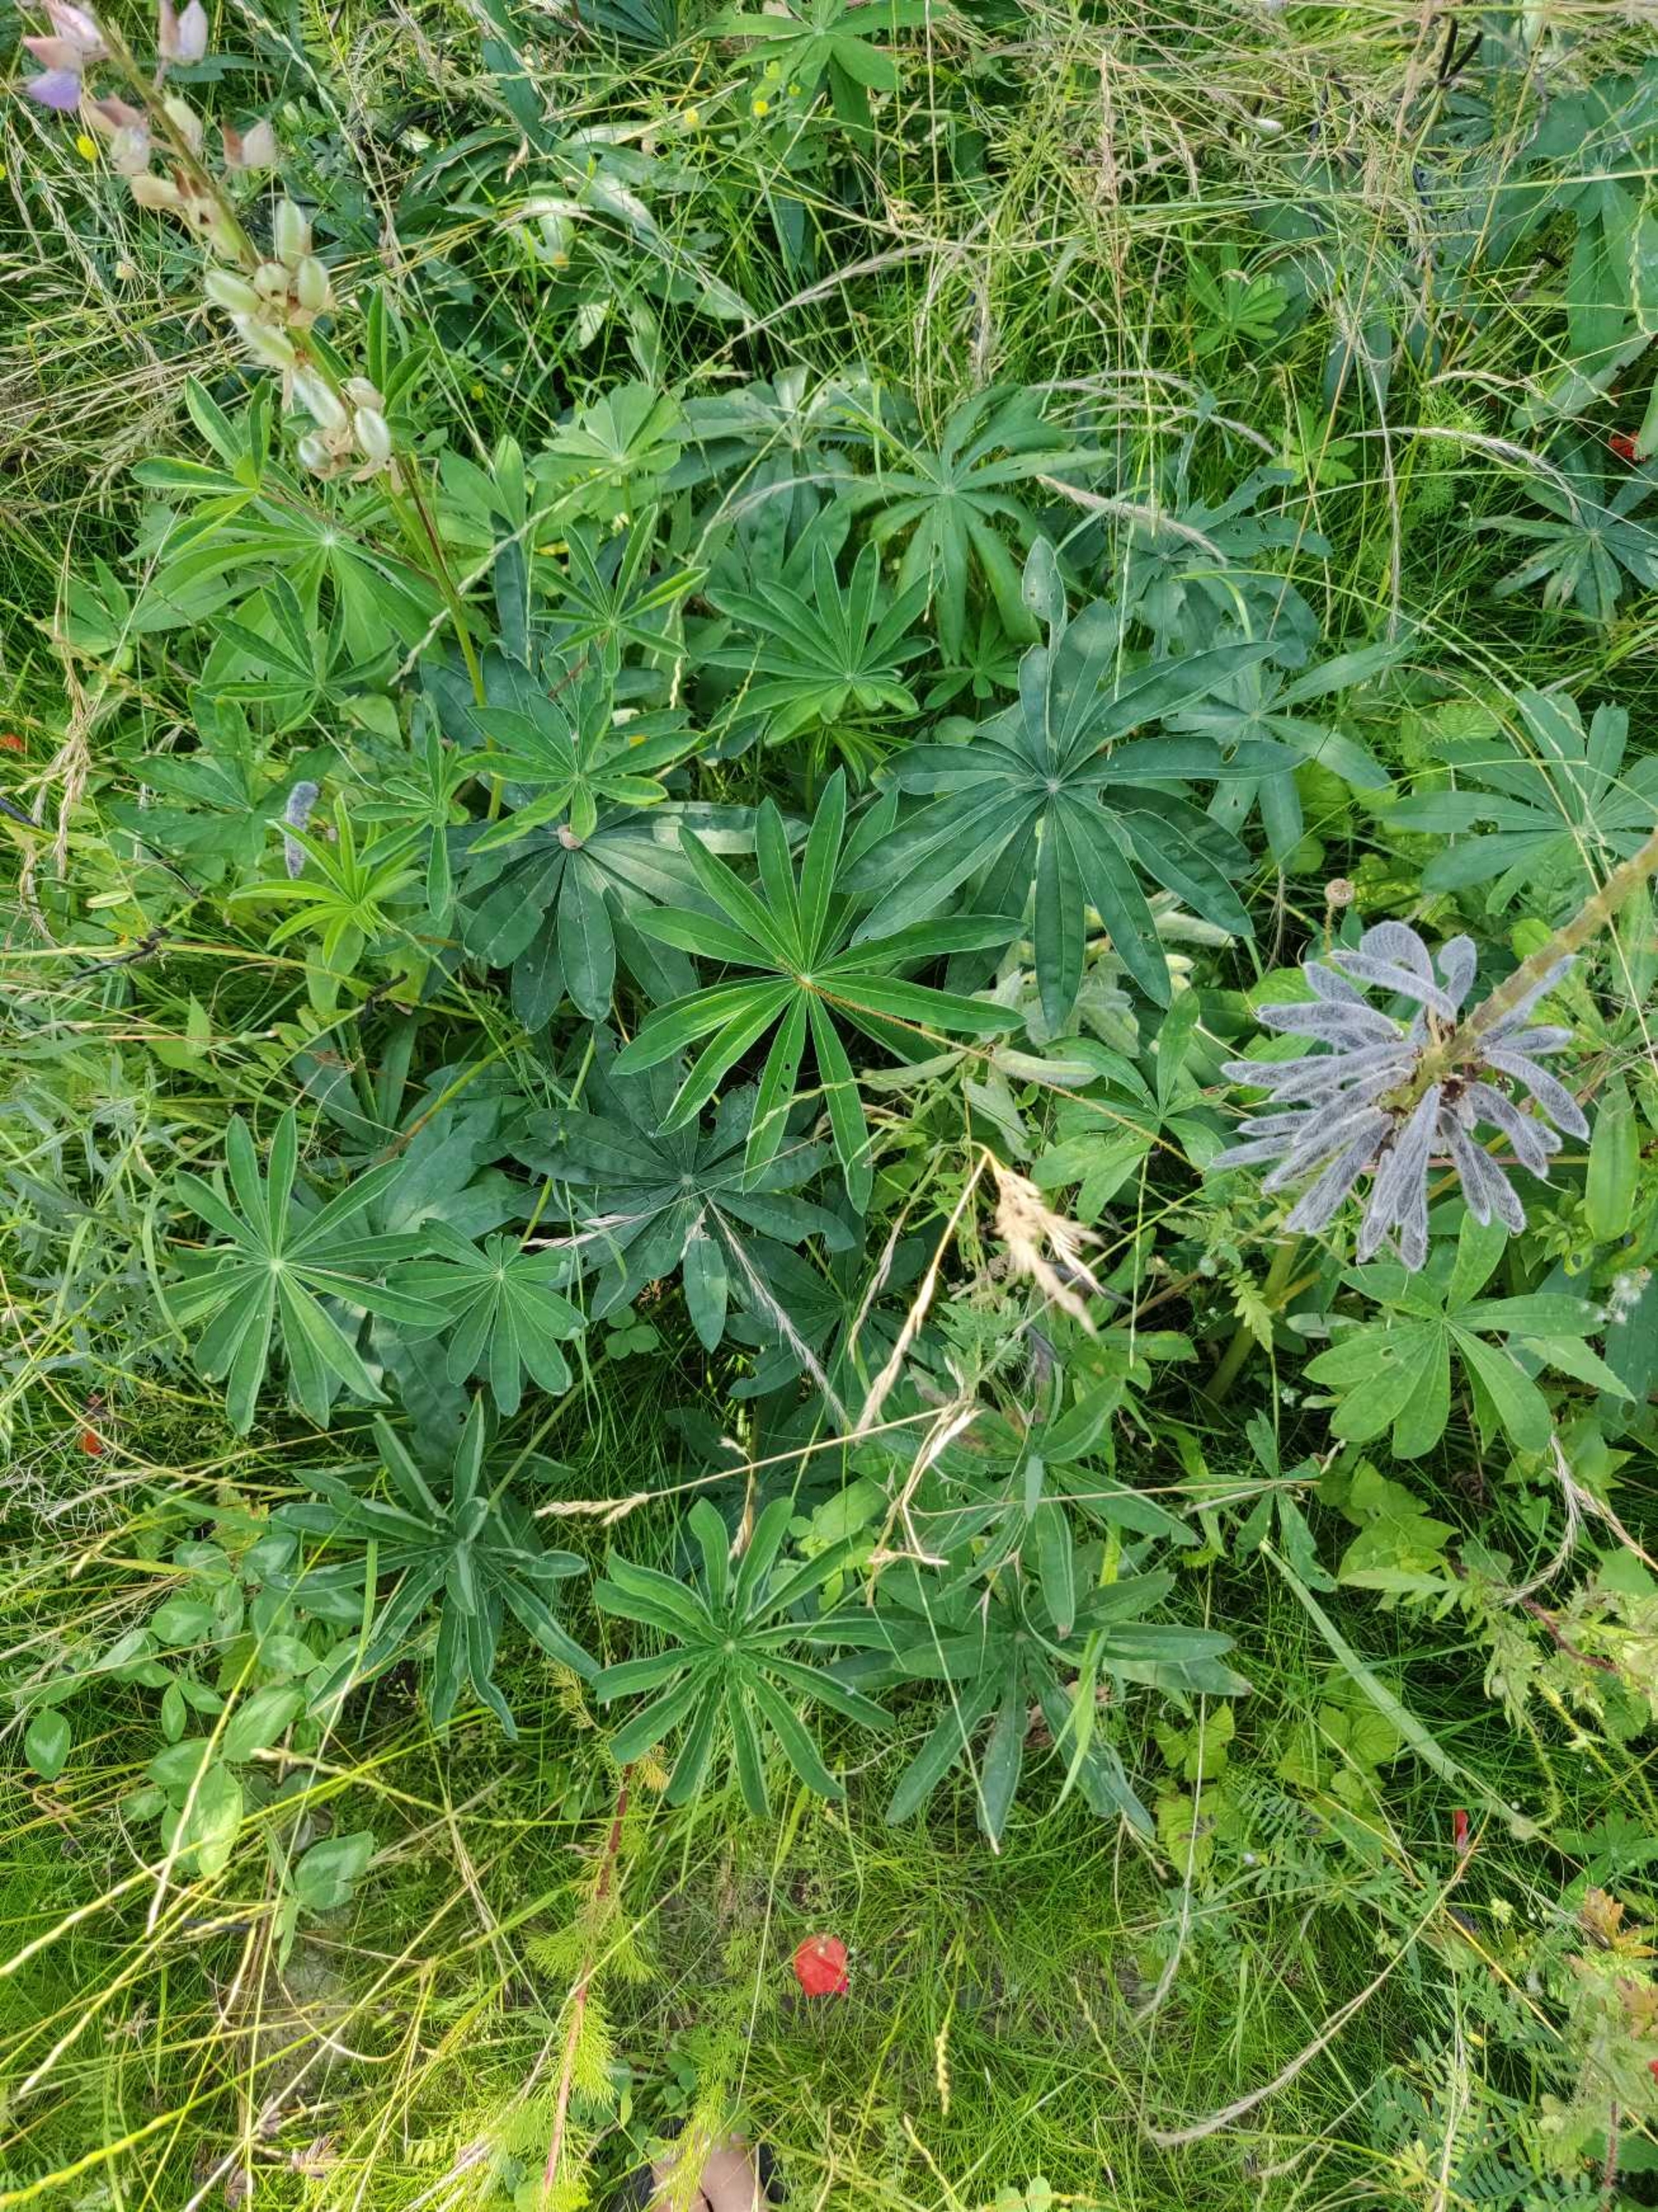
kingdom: Plantae
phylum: Tracheophyta
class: Magnoliopsida
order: Fabales
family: Fabaceae
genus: Lupinus
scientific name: Lupinus polyphyllus
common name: Mangebladet lupin
